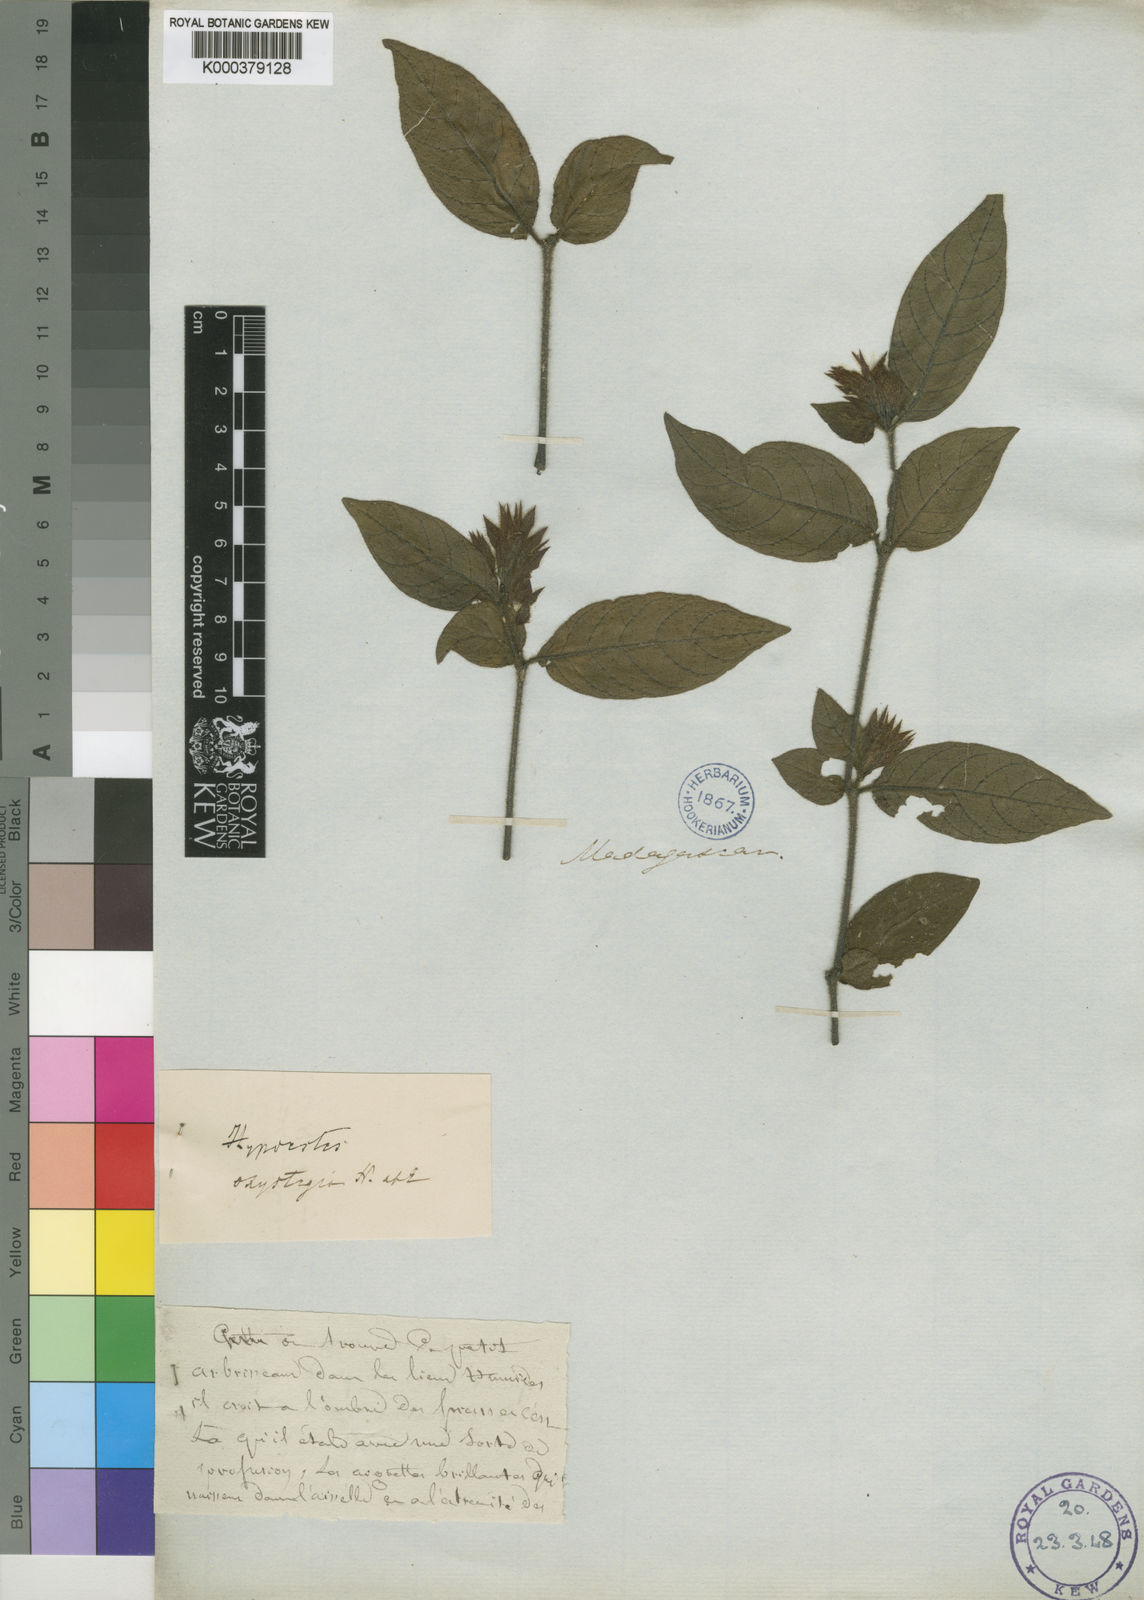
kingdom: Plantae
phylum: Tracheophyta
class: Magnoliopsida
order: Lamiales
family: Acanthaceae
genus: Hypoestes
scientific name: Hypoestes oxystegia
